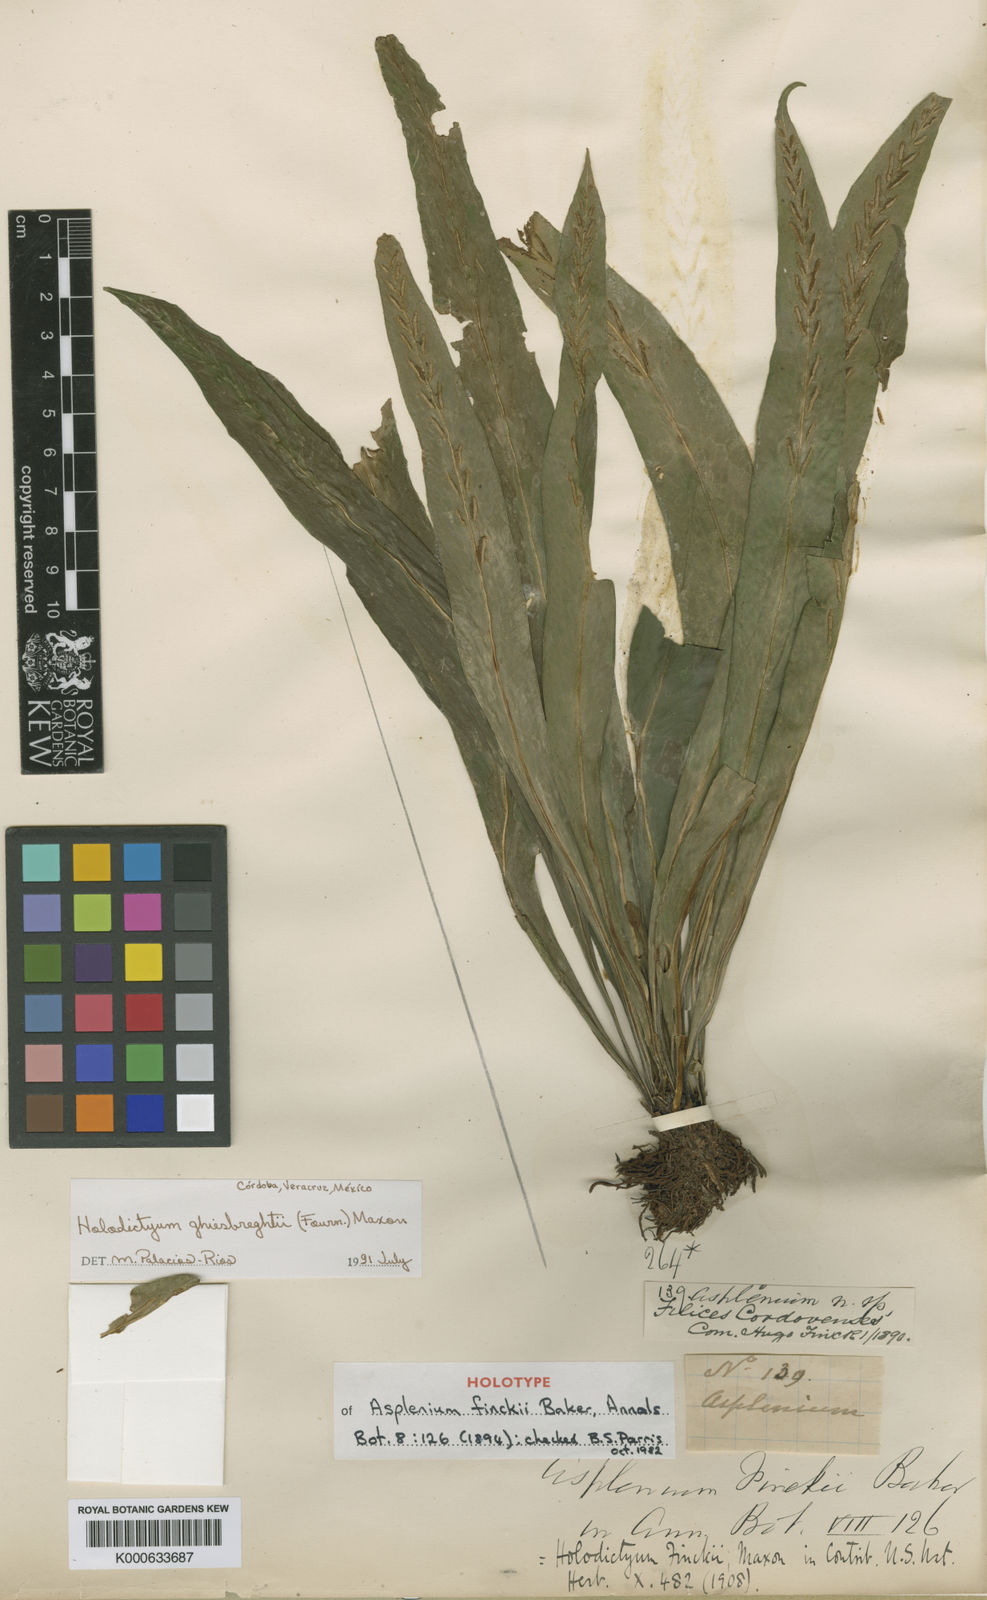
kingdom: Plantae
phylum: Tracheophyta
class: Polypodiopsida
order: Polypodiales
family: Aspleniaceae
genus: Asplenium
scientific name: Asplenium ghiesbreghtii
